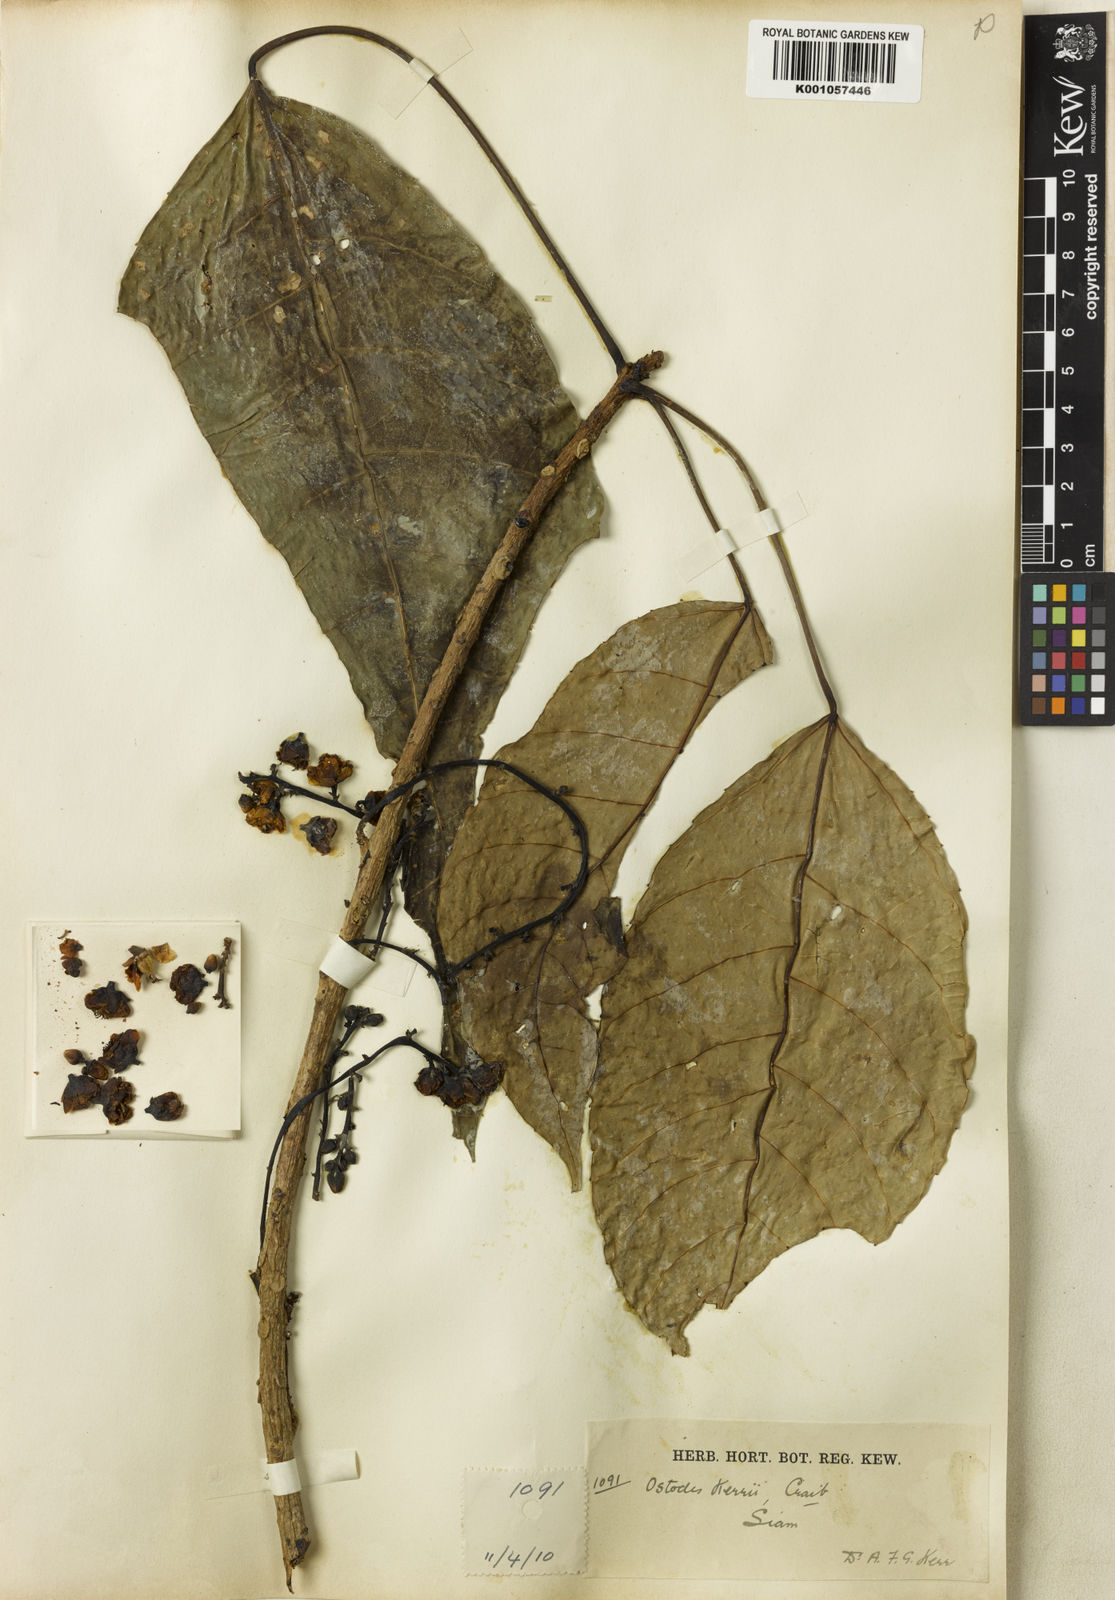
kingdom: Plantae
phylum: Tracheophyta
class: Magnoliopsida
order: Malpighiales
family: Euphorbiaceae
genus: Ostodes
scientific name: Ostodes paniculata
